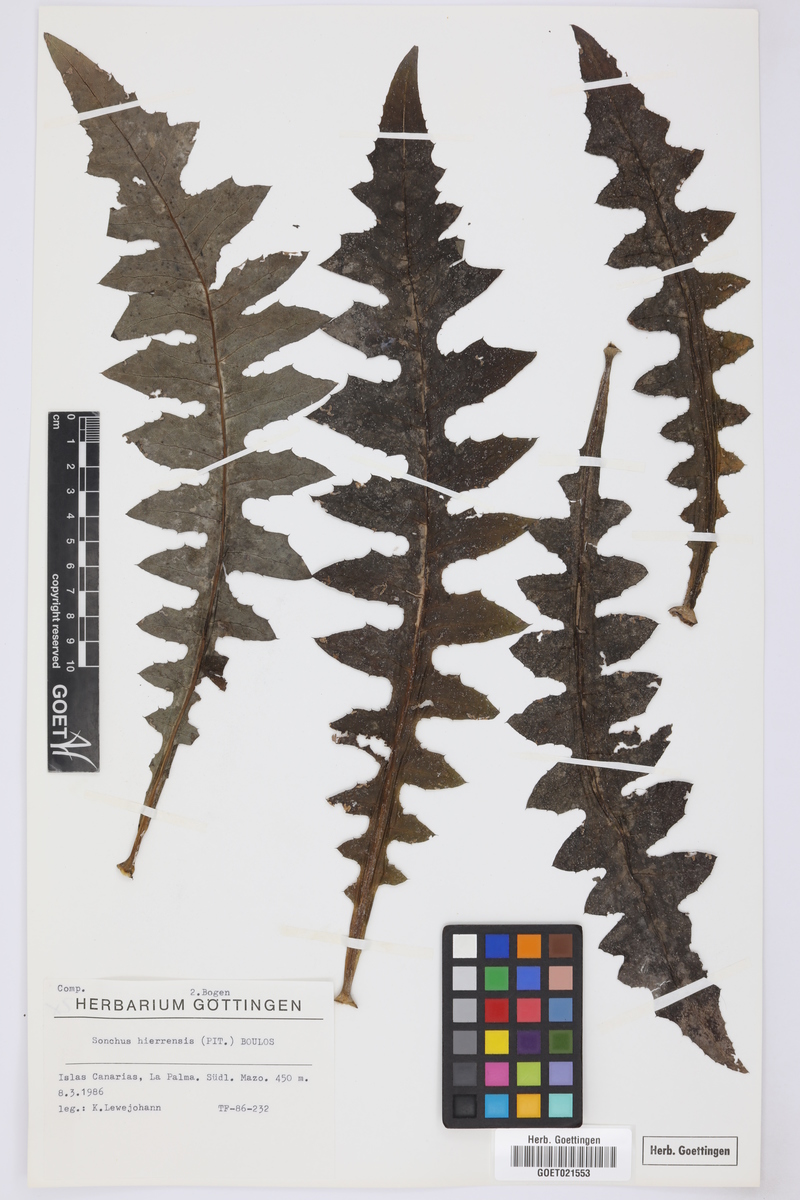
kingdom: Plantae
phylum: Tracheophyta
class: Magnoliopsida
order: Asterales
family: Asteraceae
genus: Sonchus
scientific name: Sonchus hierrensis
